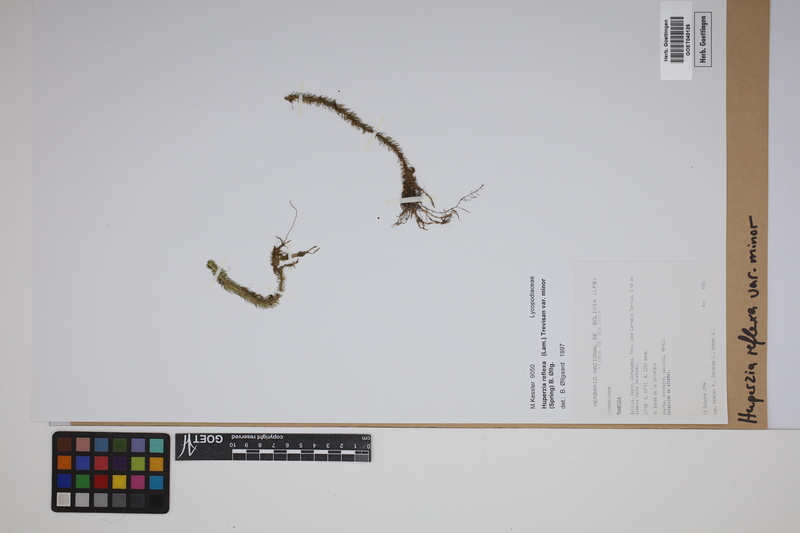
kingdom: Plantae
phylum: Tracheophyta
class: Lycopodiopsida
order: Lycopodiales
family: Lycopodiaceae
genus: Phlegmariurus
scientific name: Phlegmariurus reflexus
